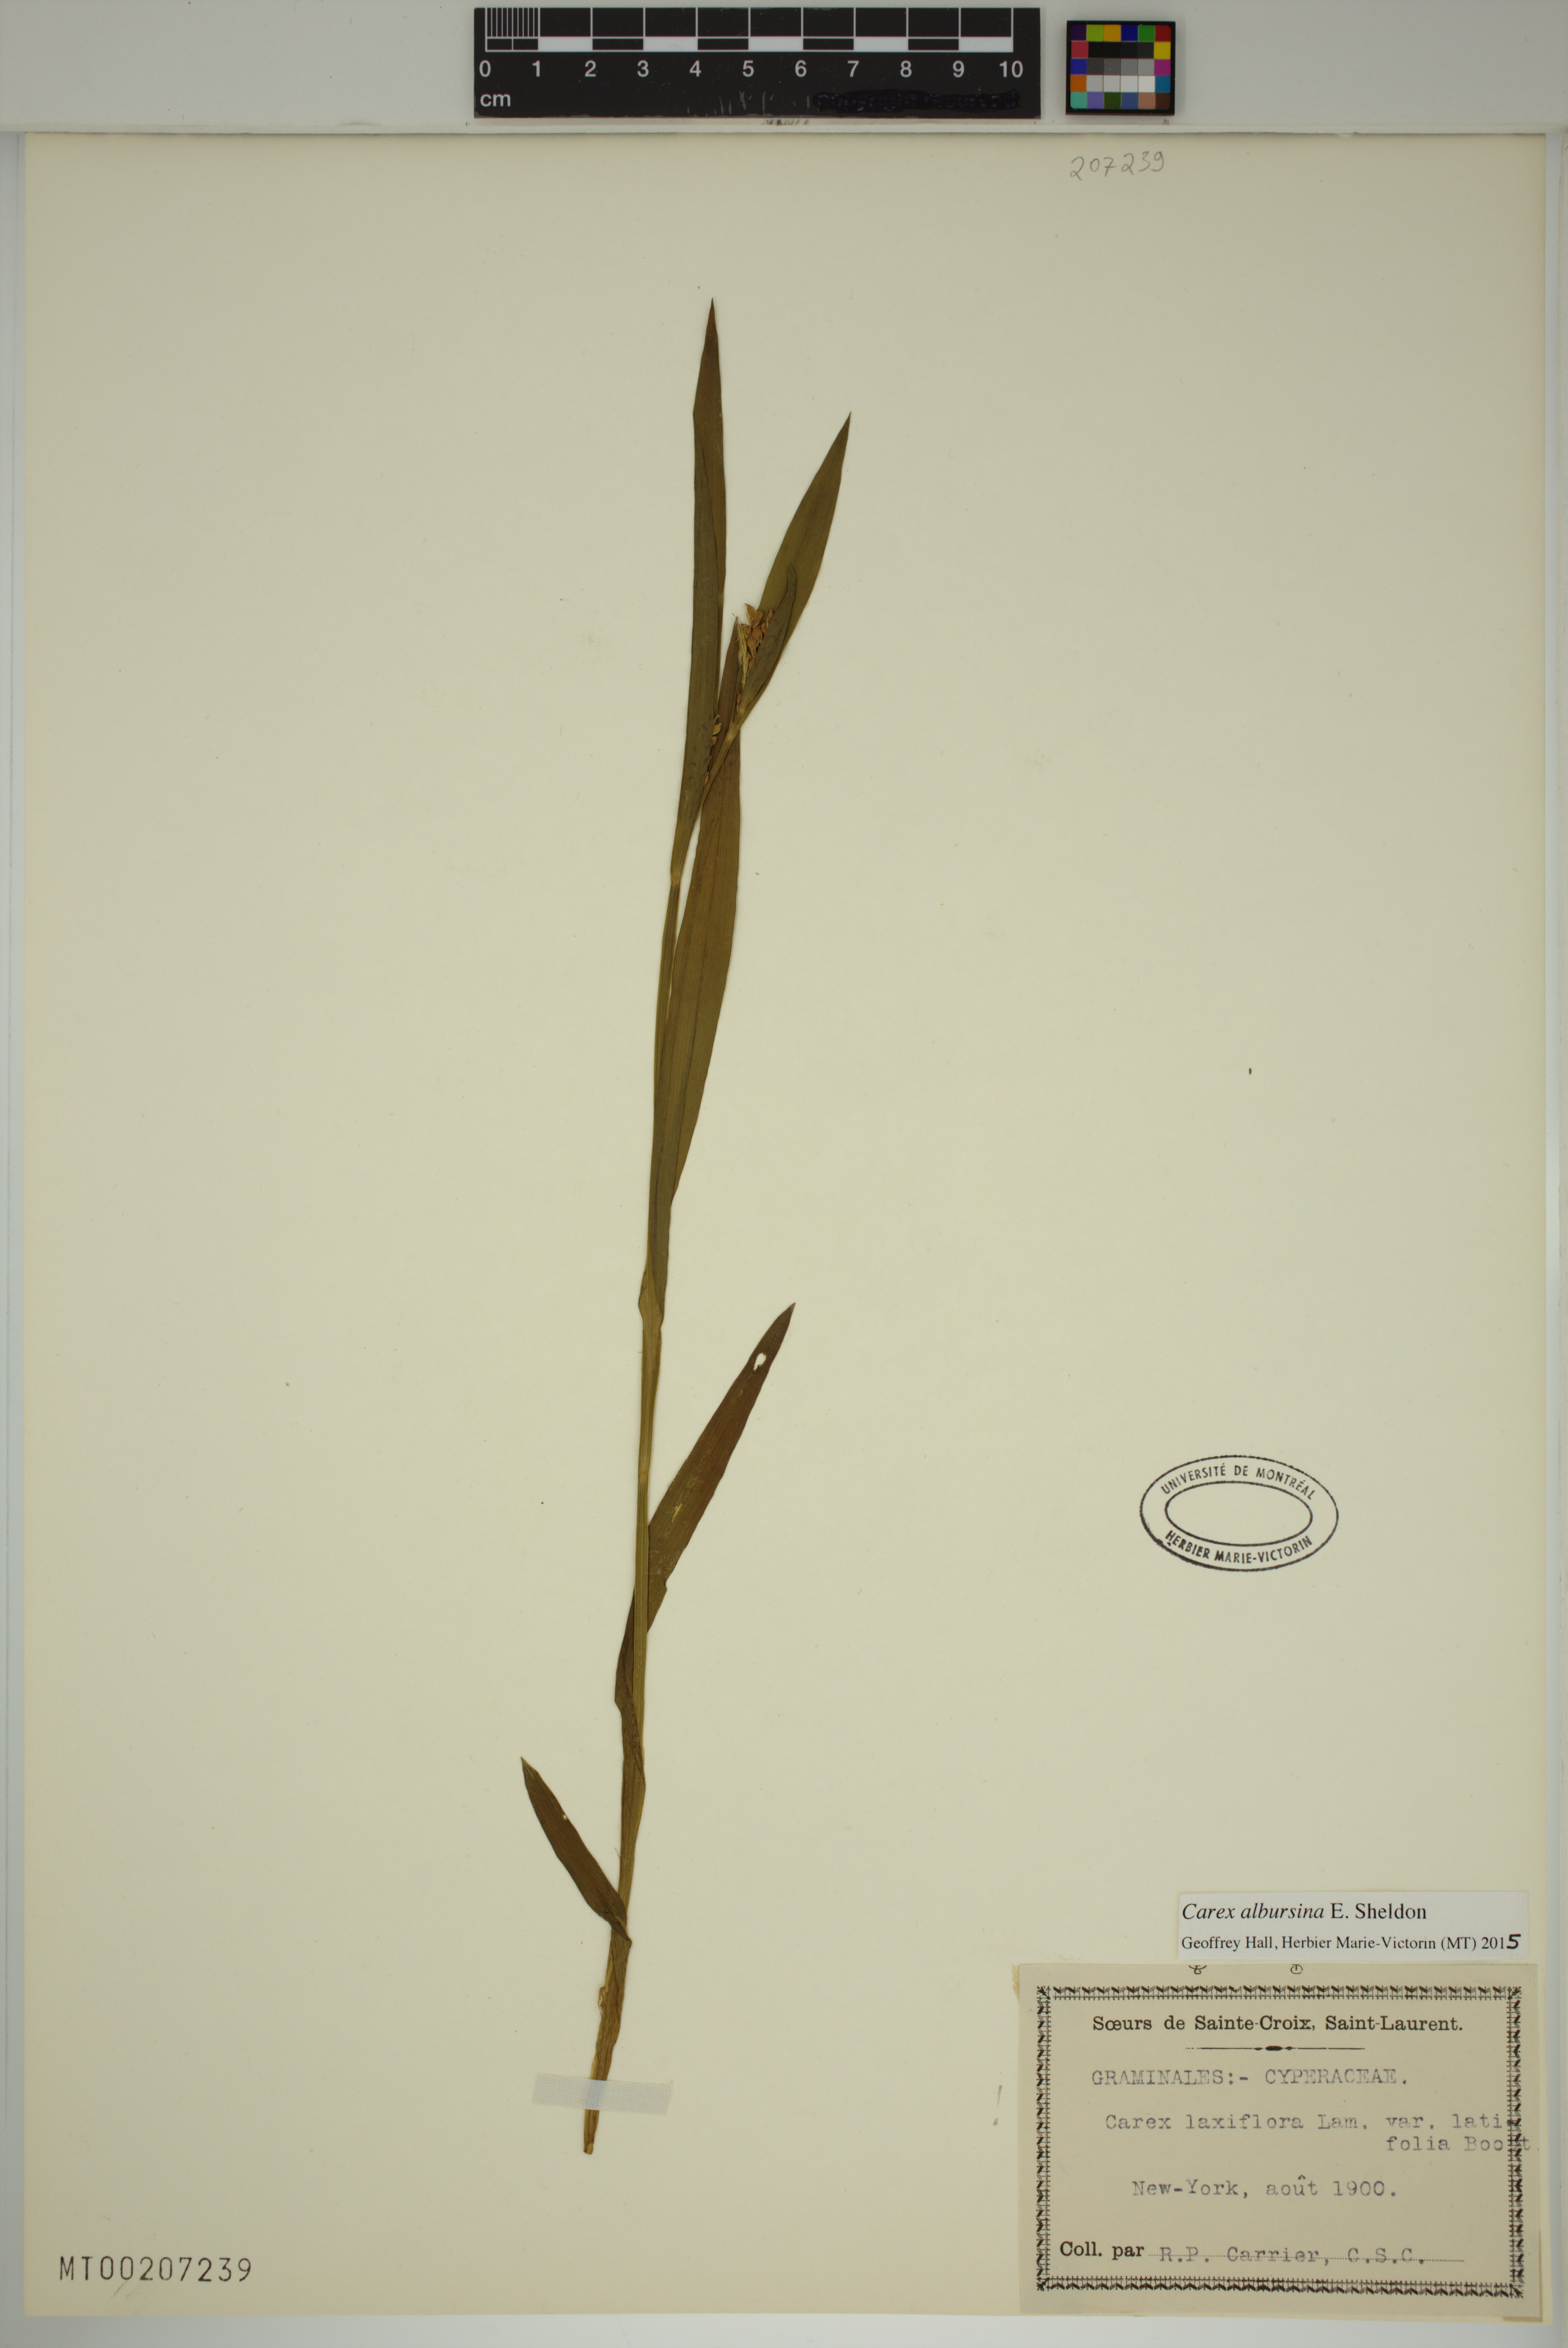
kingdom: Plantae
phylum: Tracheophyta
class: Liliopsida
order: Poales
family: Cyperaceae
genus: Carex
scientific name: Carex albursina
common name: Blunt-scale wood sedge
